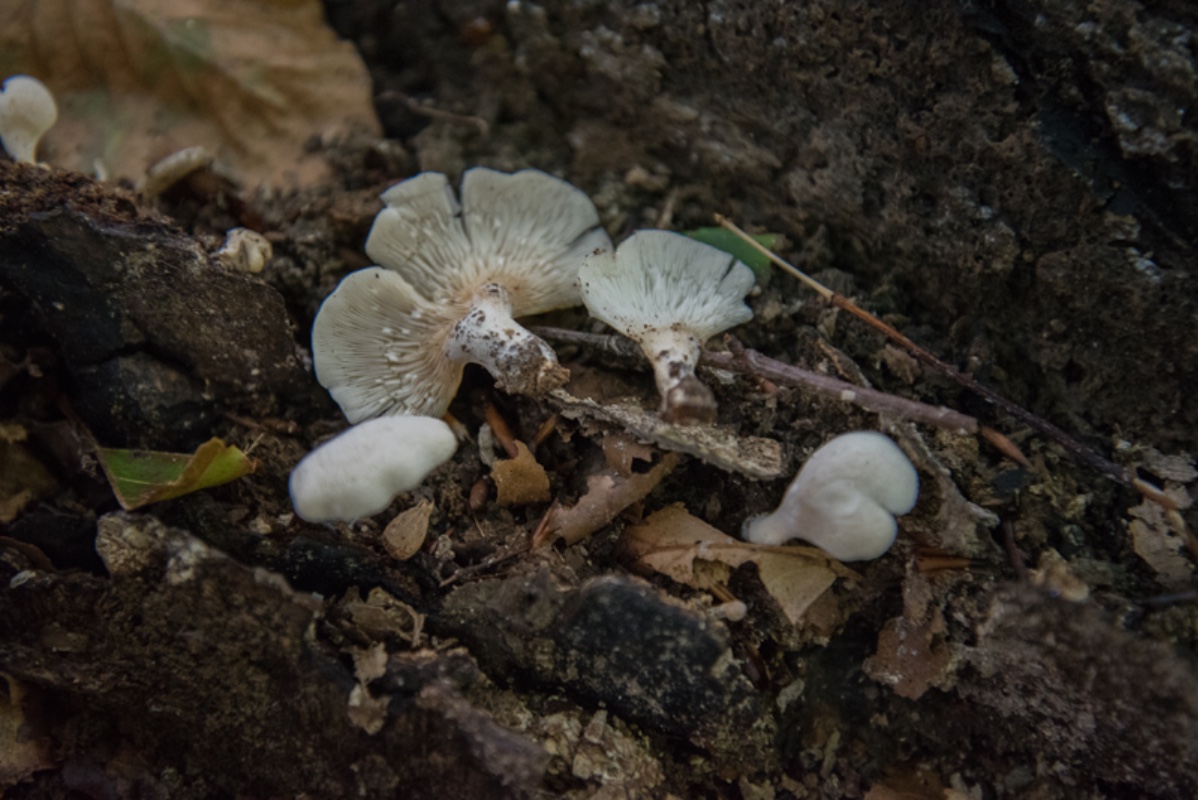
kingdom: Fungi
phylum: Basidiomycota
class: Agaricomycetes
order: Agaricales
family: Pleurotaceae
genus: Hohenbuehelia
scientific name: Hohenbuehelia auriscalpium
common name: spatel-filthat
